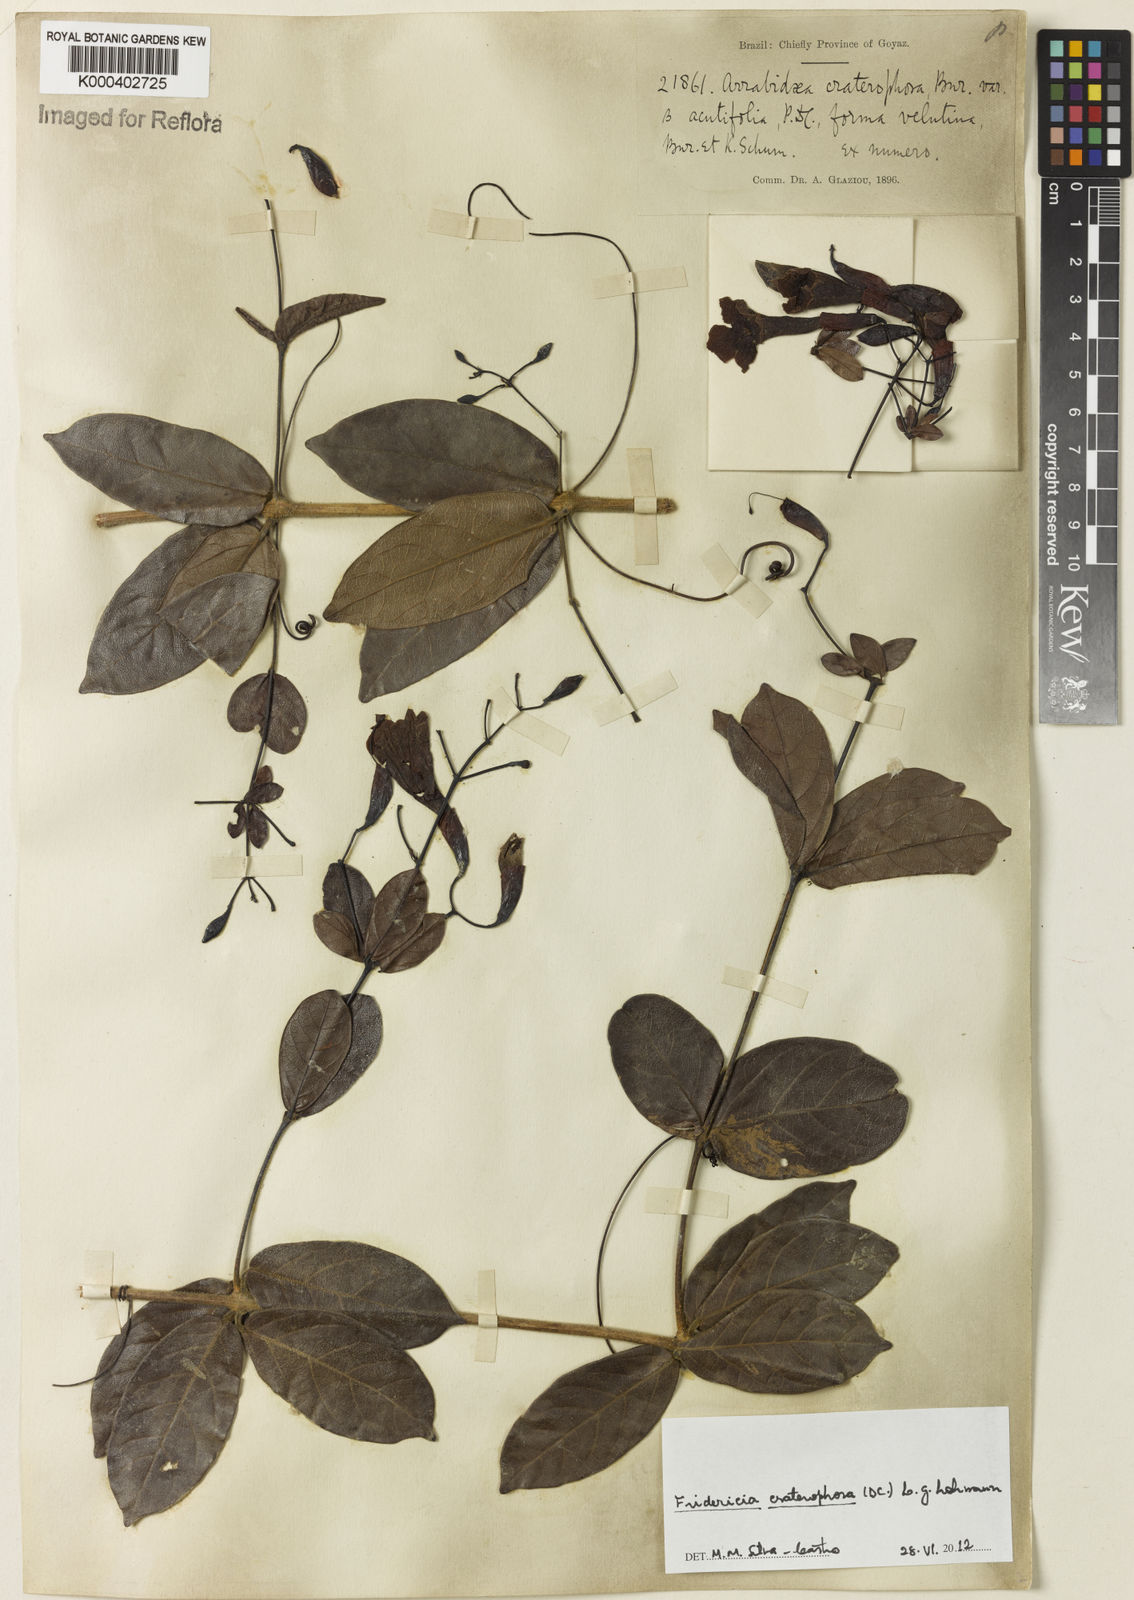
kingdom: Plantae
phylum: Tracheophyta
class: Magnoliopsida
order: Lamiales
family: Bignoniaceae
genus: Fridericia
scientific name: Fridericia craterophora
